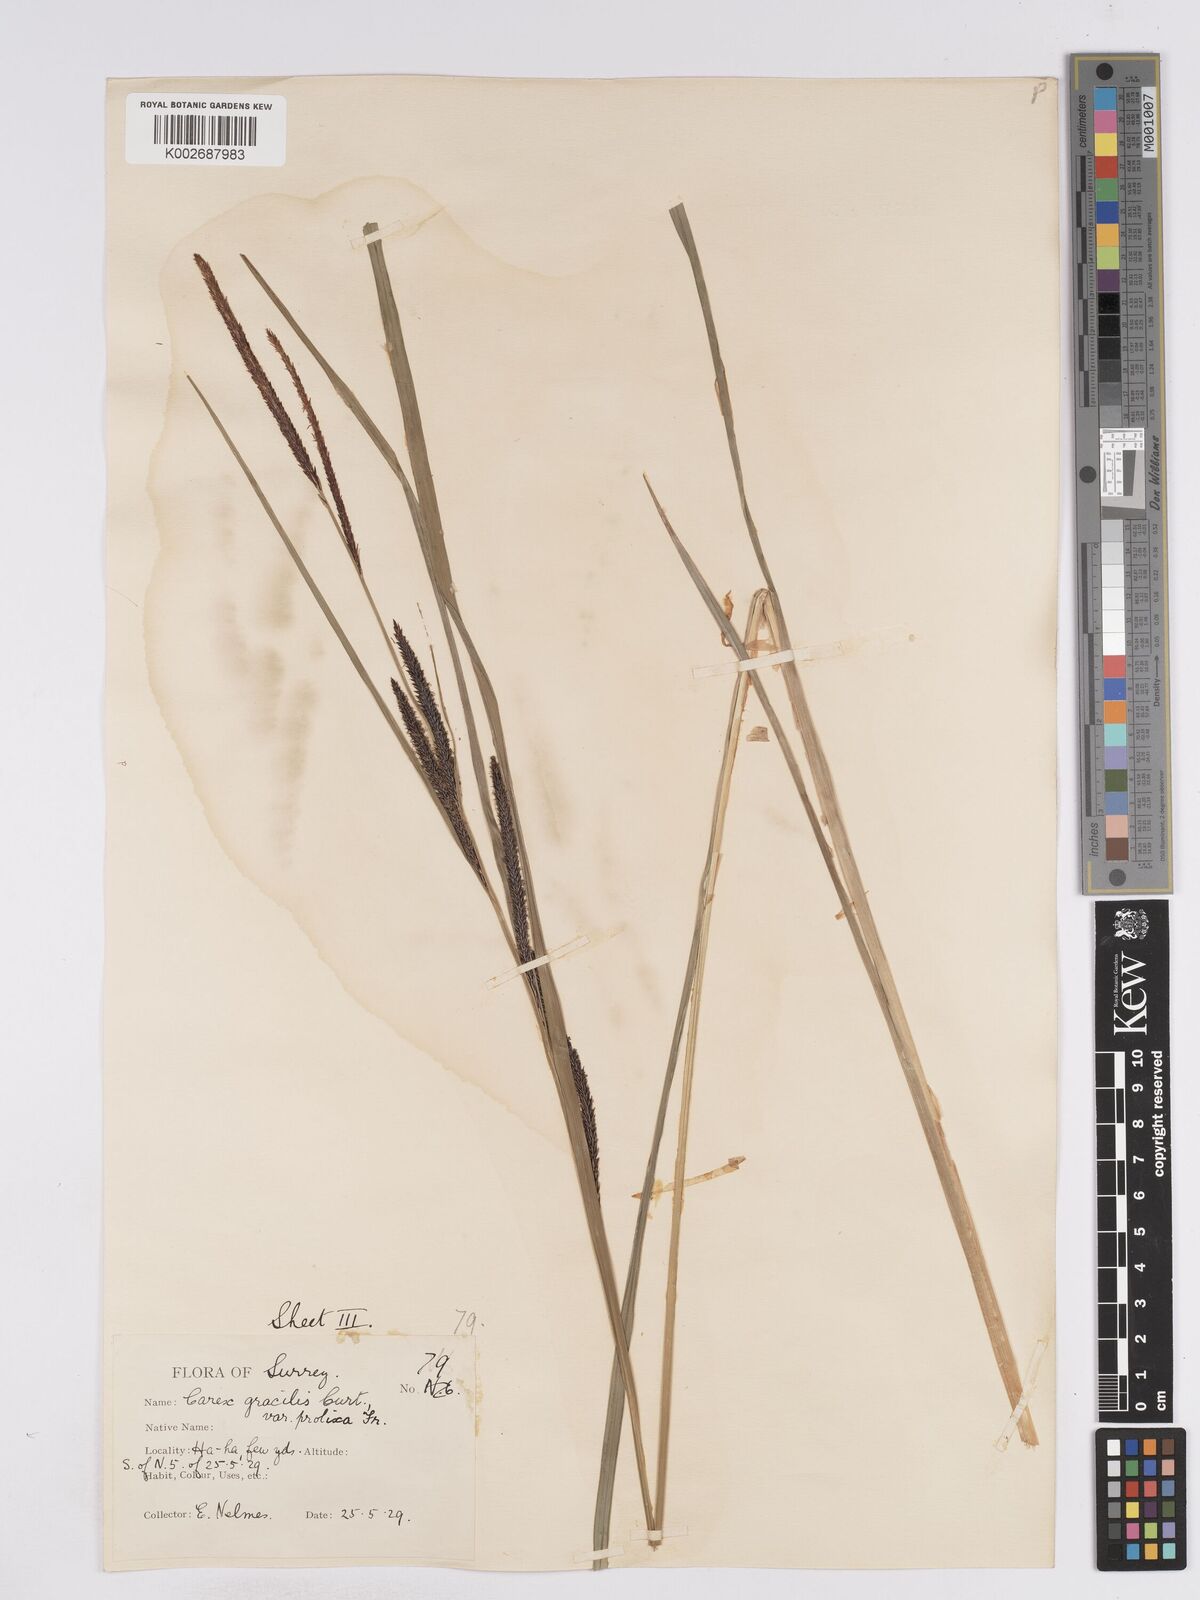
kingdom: Plantae
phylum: Tracheophyta
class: Liliopsida
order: Poales
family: Cyperaceae
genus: Carex
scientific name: Carex acuta
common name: Slender tufted-sedge
